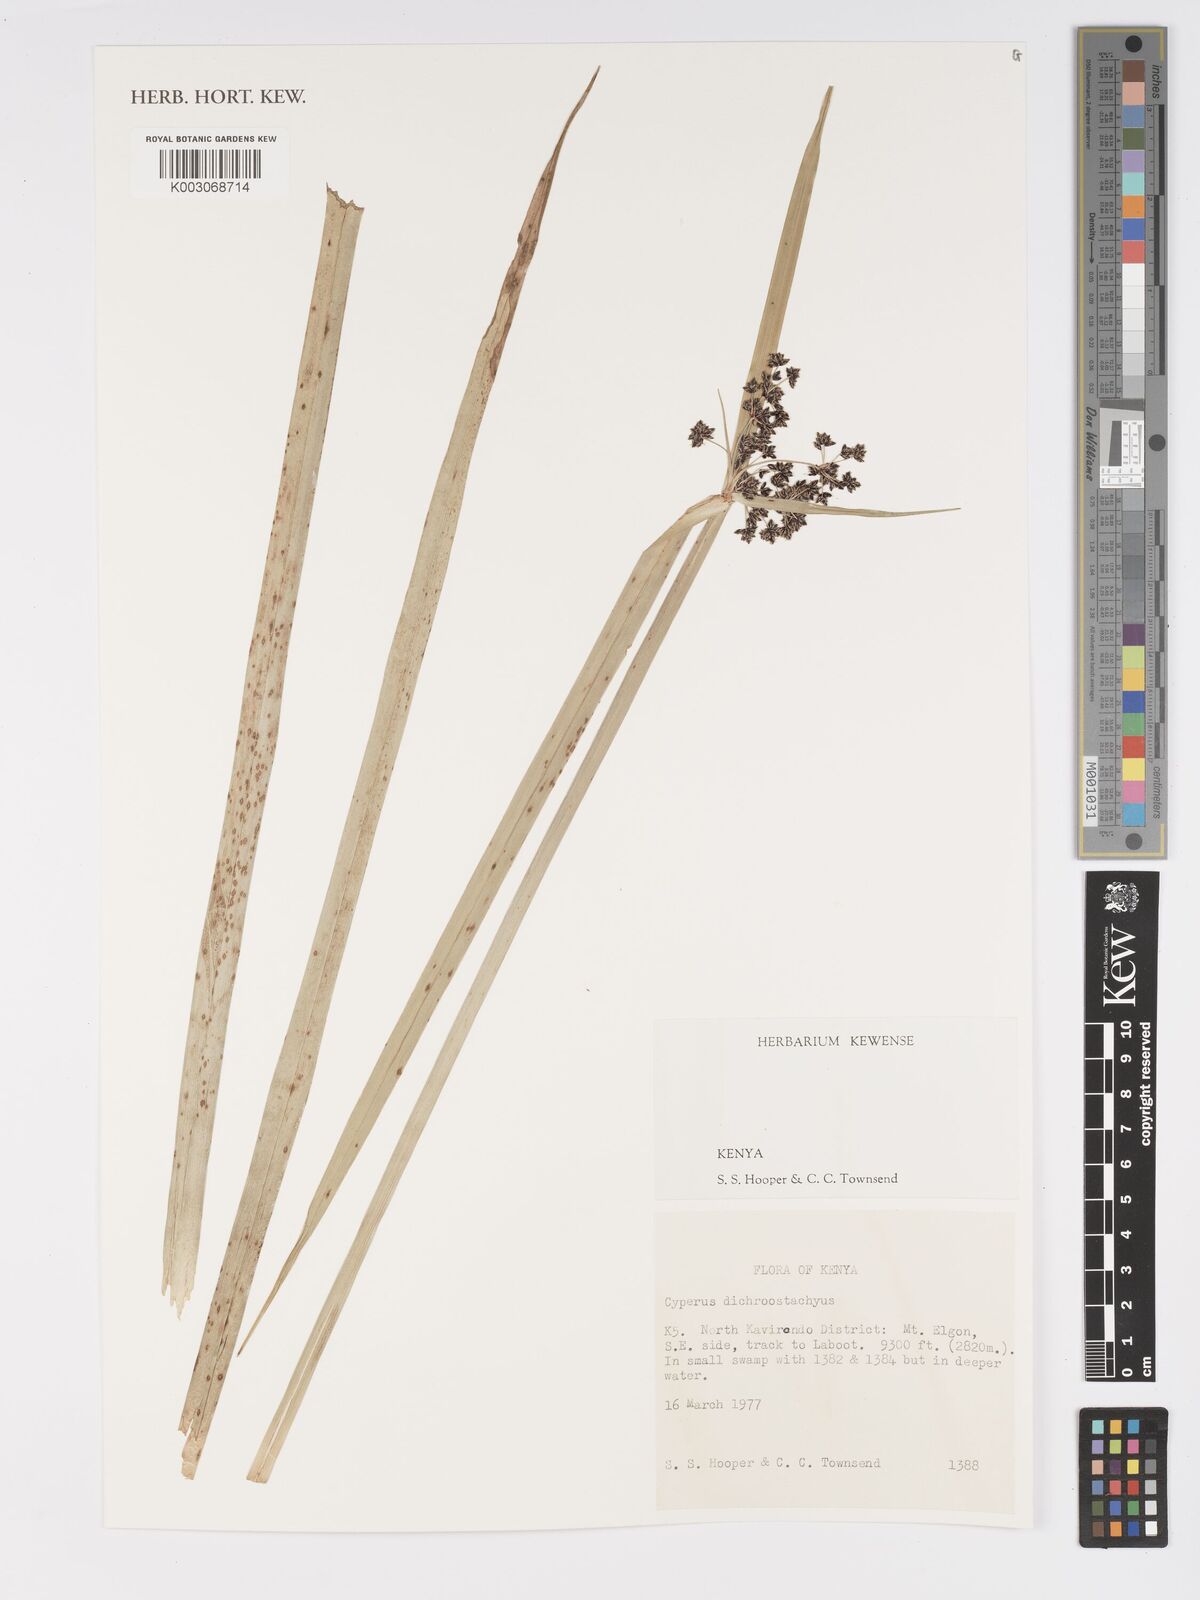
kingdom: Plantae
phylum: Tracheophyta
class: Liliopsida
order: Poales
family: Cyperaceae
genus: Cyperus
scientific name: Cyperus dichrostachyus
